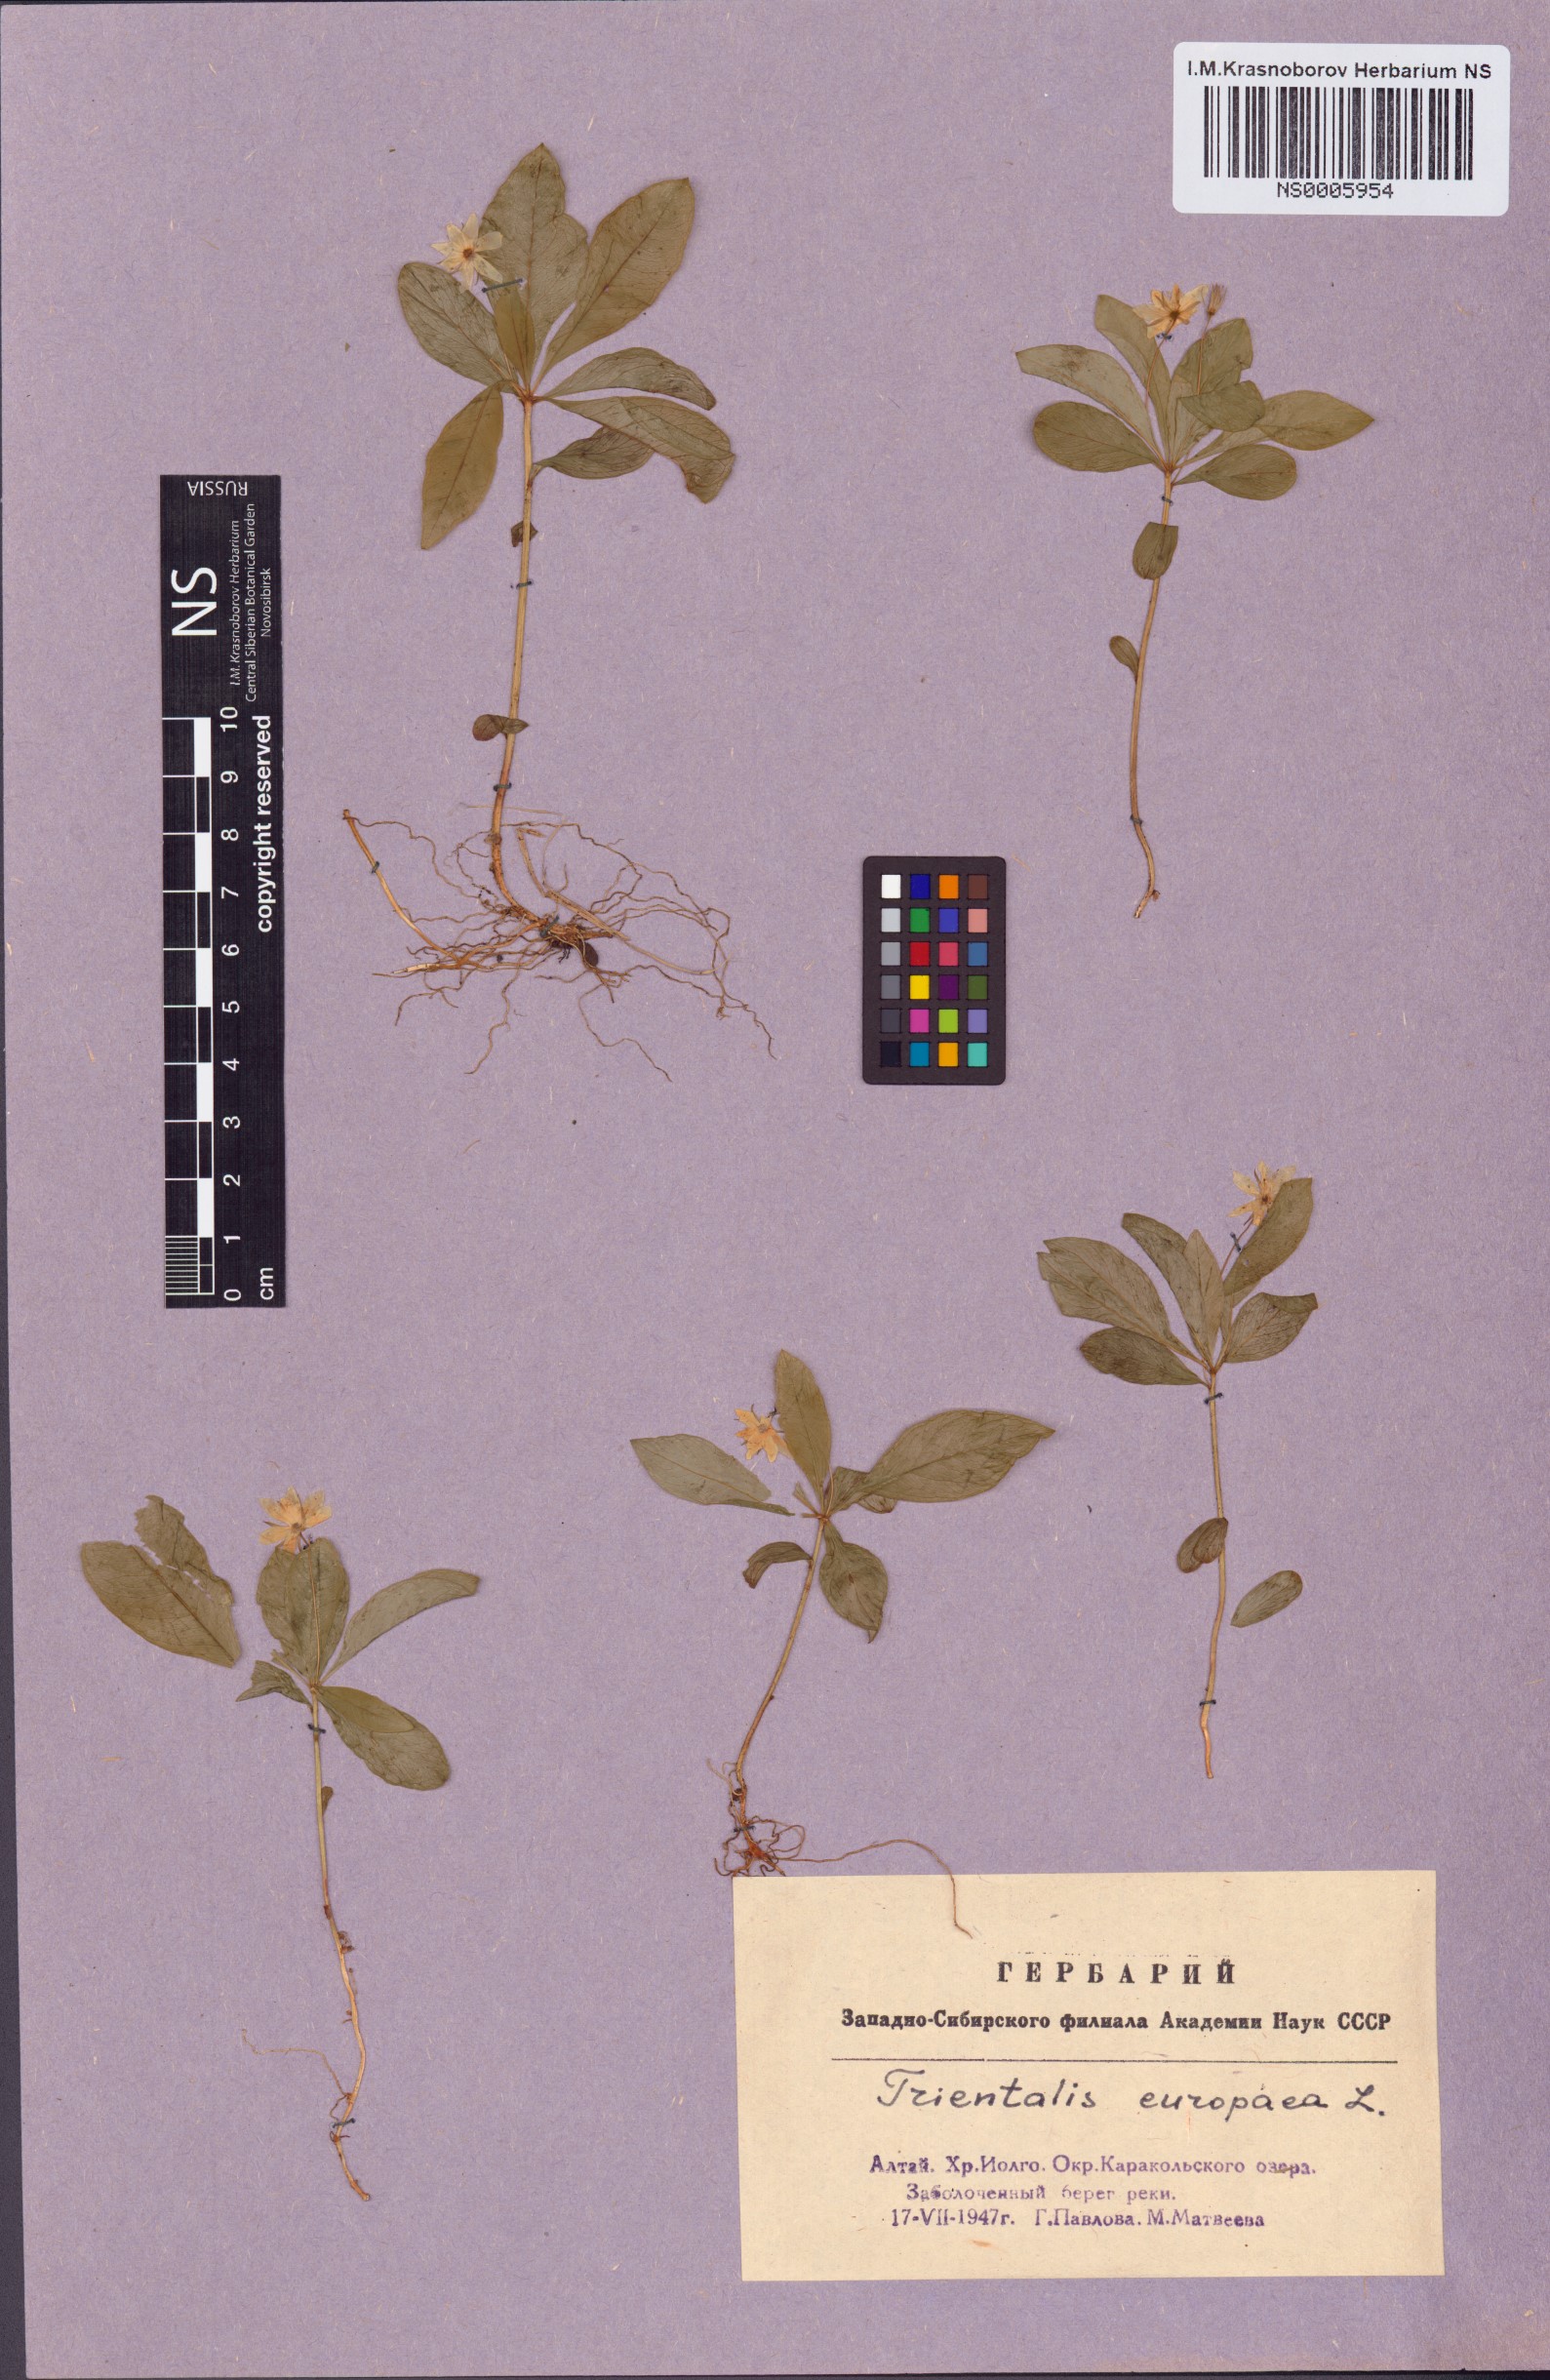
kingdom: Plantae
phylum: Tracheophyta
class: Magnoliopsida
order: Ericales
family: Primulaceae
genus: Lysimachia
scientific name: Lysimachia europaea
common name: Arctic starflower
